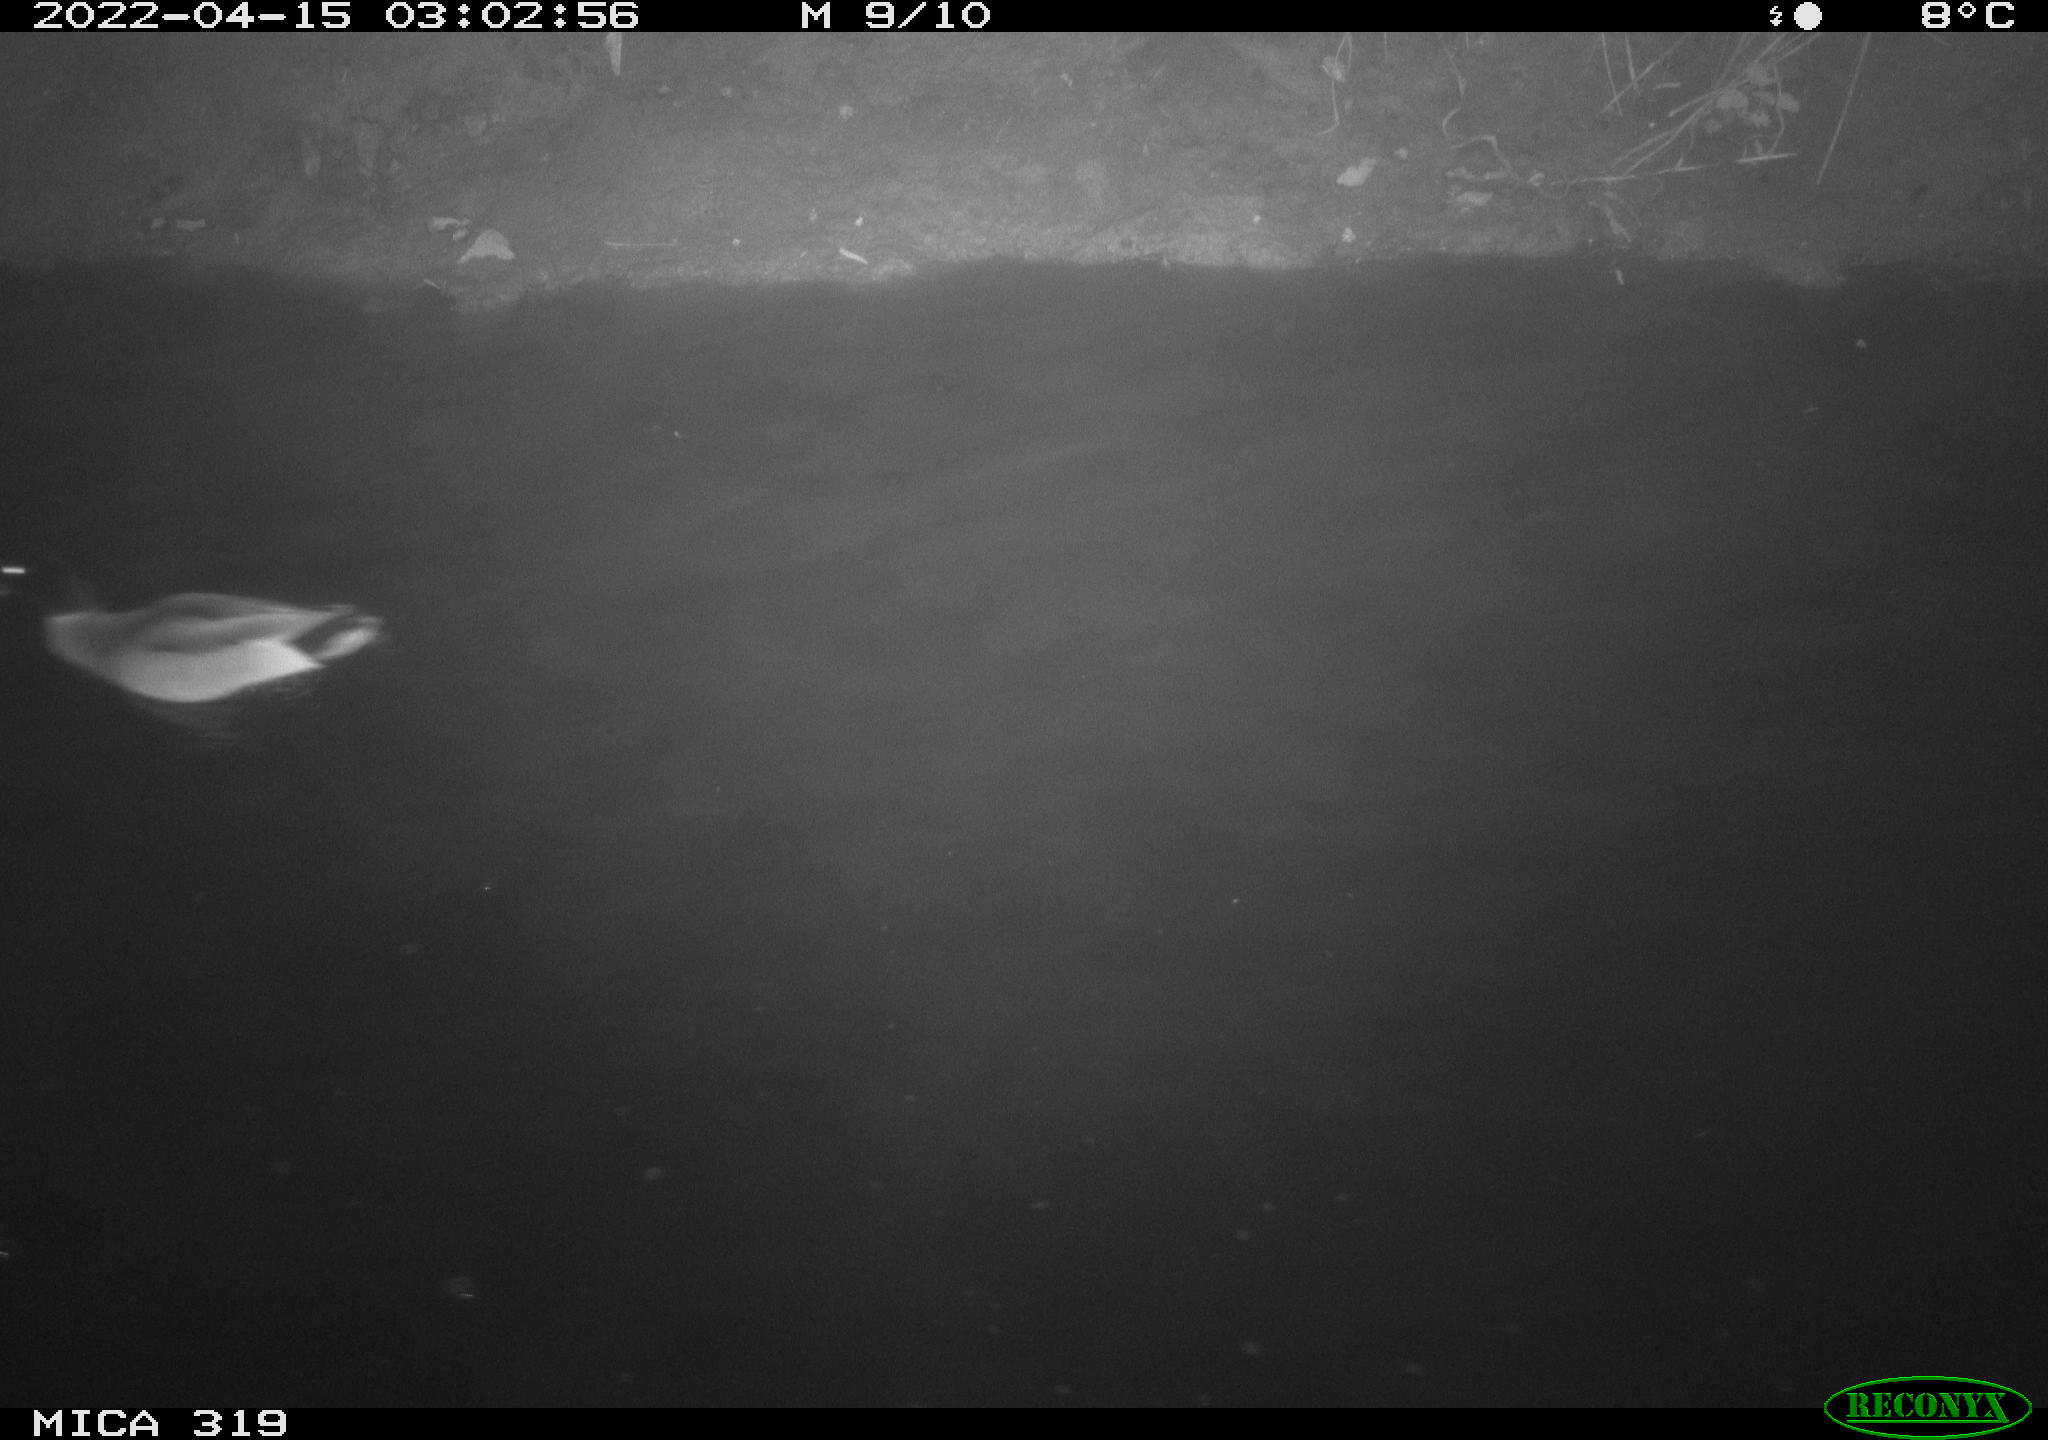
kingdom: Animalia
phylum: Chordata
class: Aves
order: Anseriformes
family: Anatidae
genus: Anas
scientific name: Anas platyrhynchos
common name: Mallard
